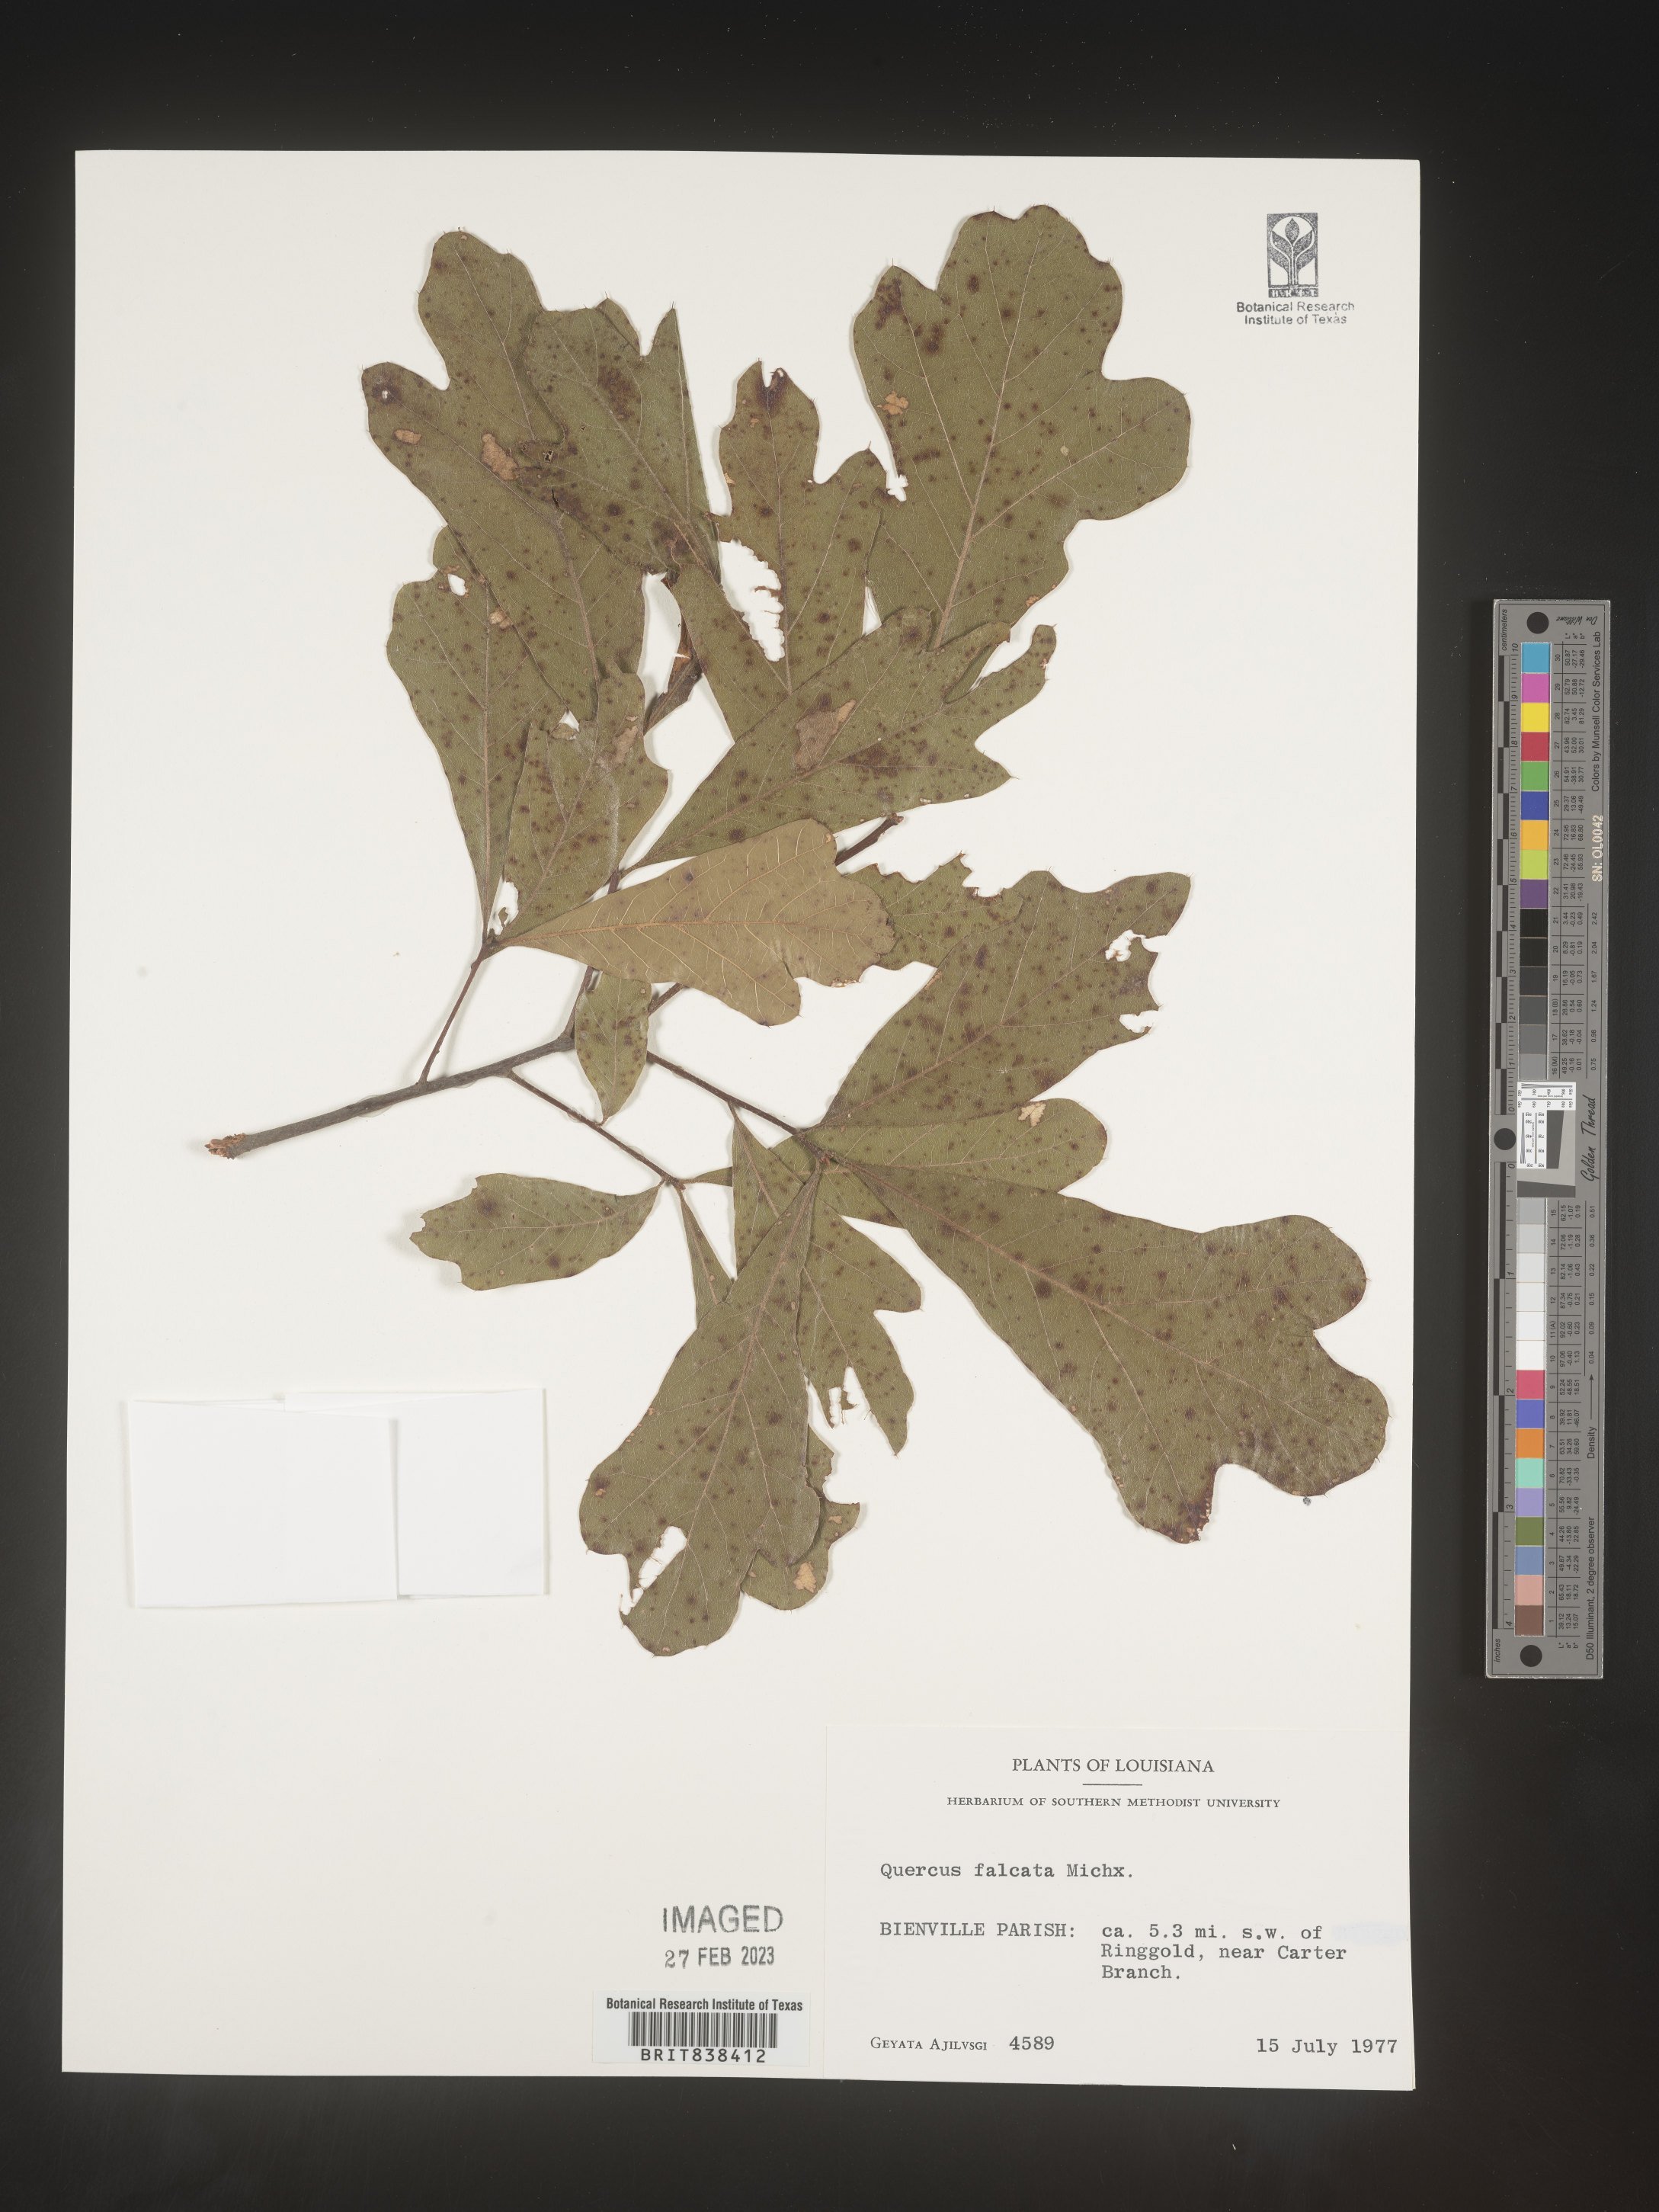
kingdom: Plantae
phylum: Tracheophyta
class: Magnoliopsida
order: Fagales
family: Fagaceae
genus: Quercus
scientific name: Quercus falcata
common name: Southern red oak
